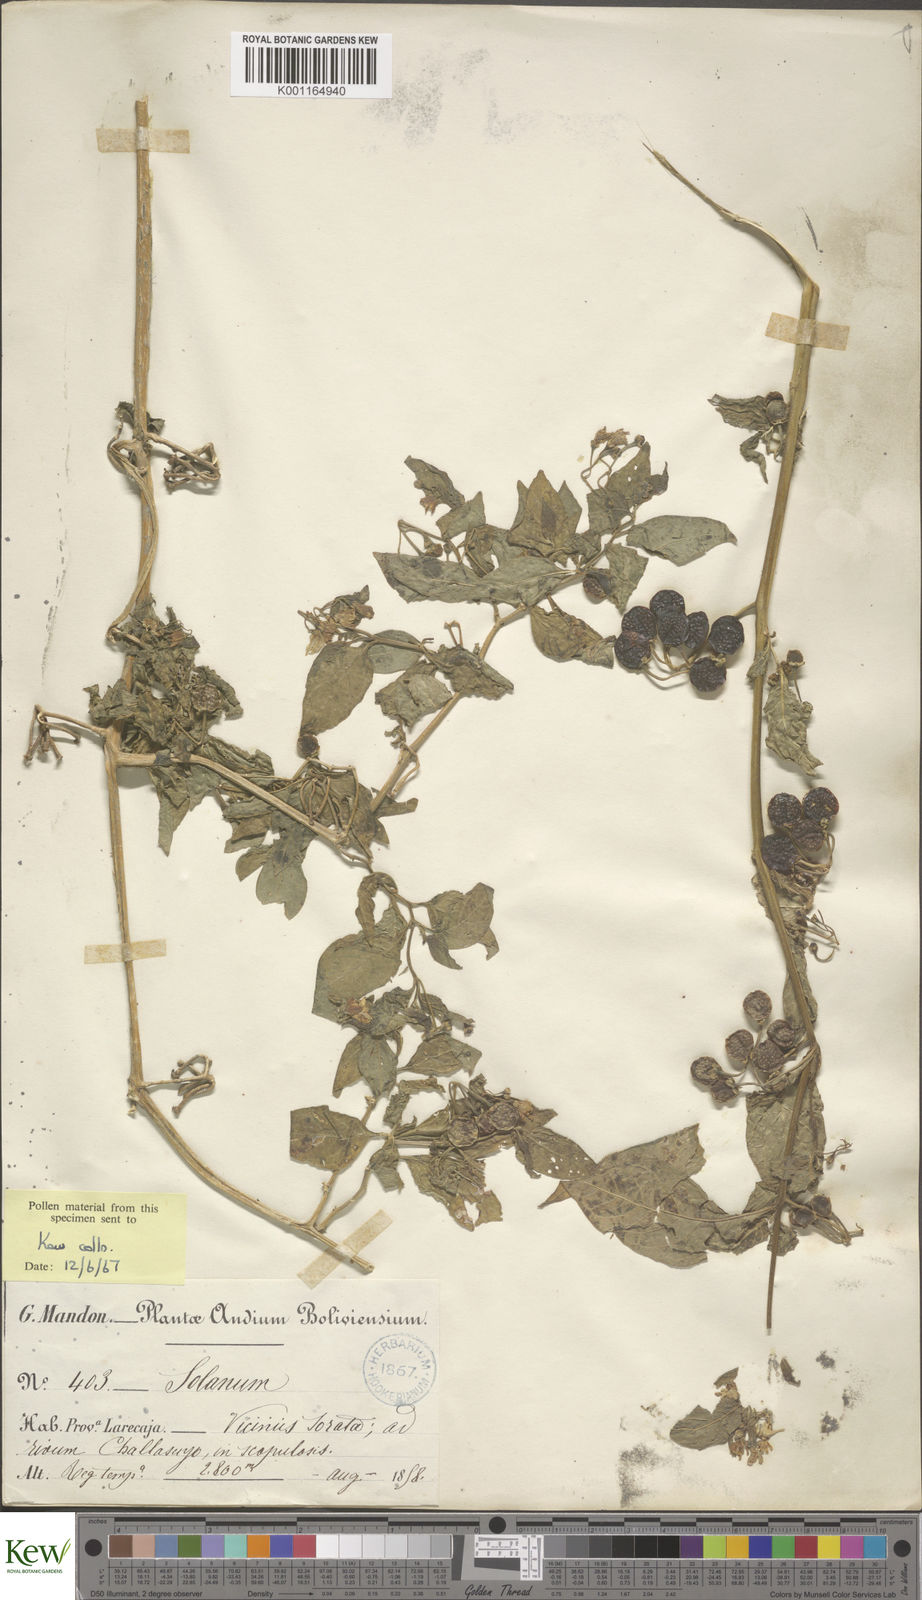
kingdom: Plantae
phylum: Tracheophyta
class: Magnoliopsida
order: Solanales
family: Solanaceae
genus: Solanum
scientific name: Solanum nudum
